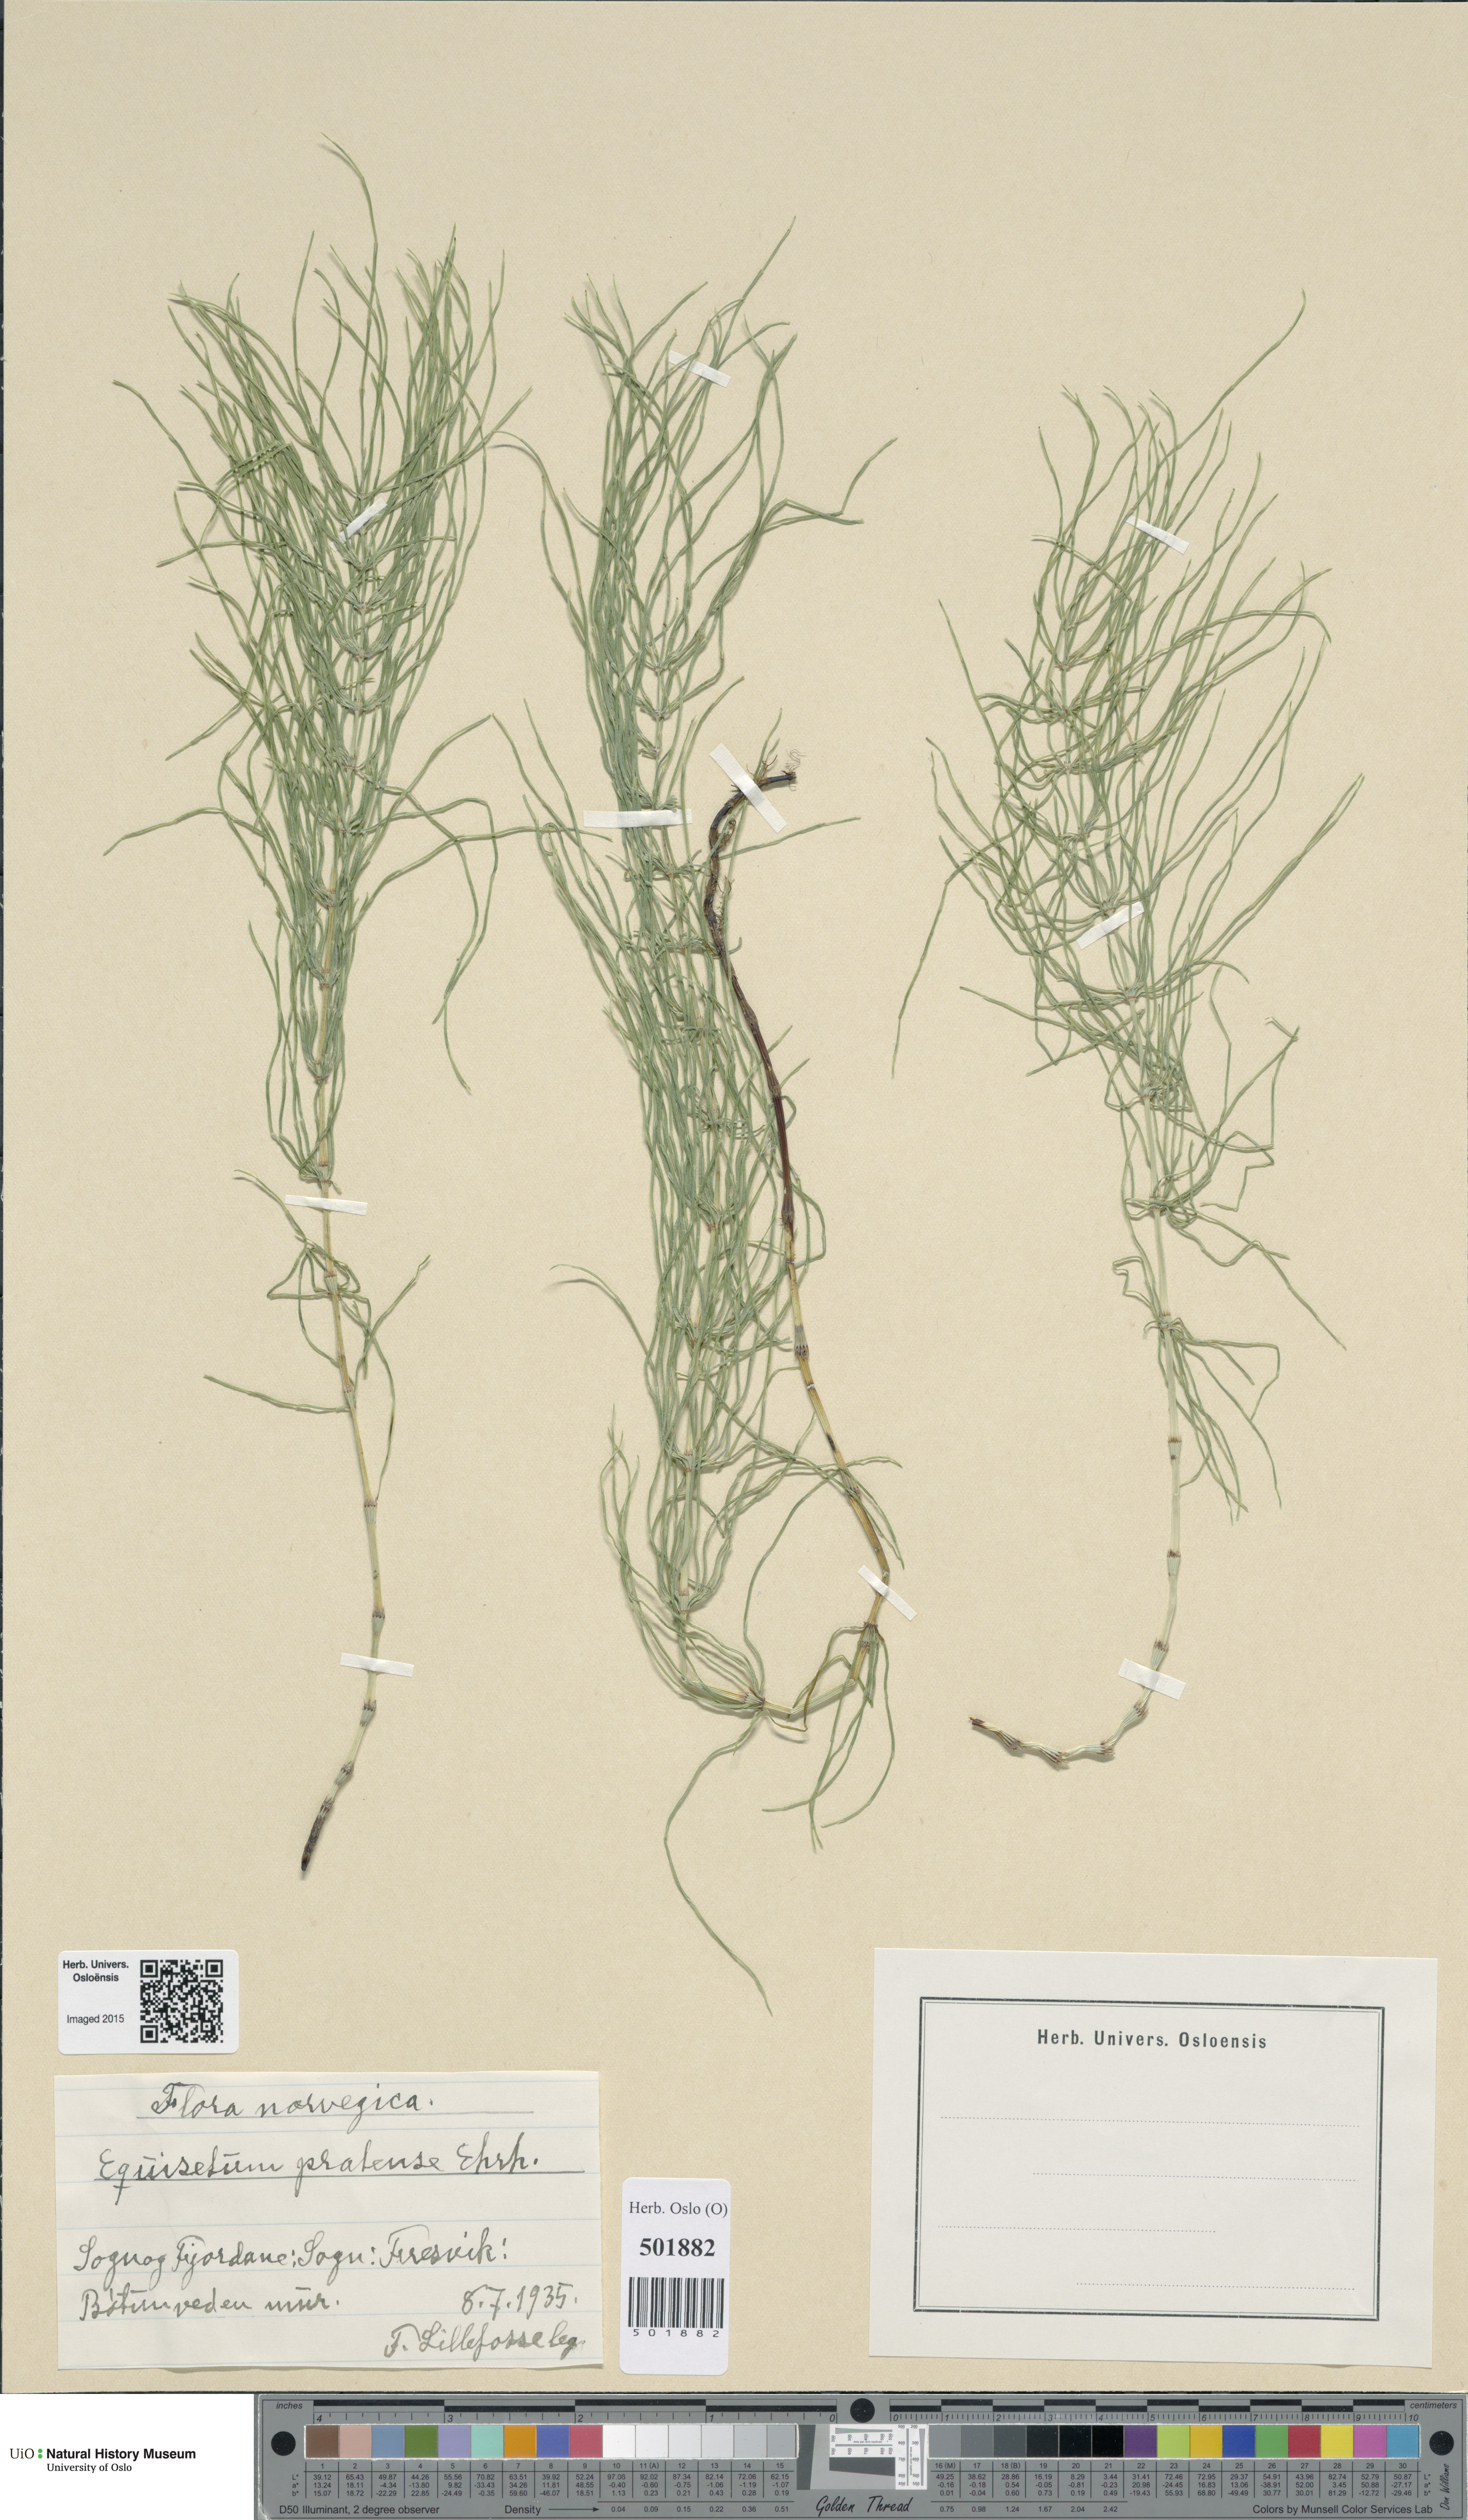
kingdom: Plantae
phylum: Tracheophyta
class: Polypodiopsida
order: Equisetales
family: Equisetaceae
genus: Equisetum
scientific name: Equisetum pratense
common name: Meadow horsetail
